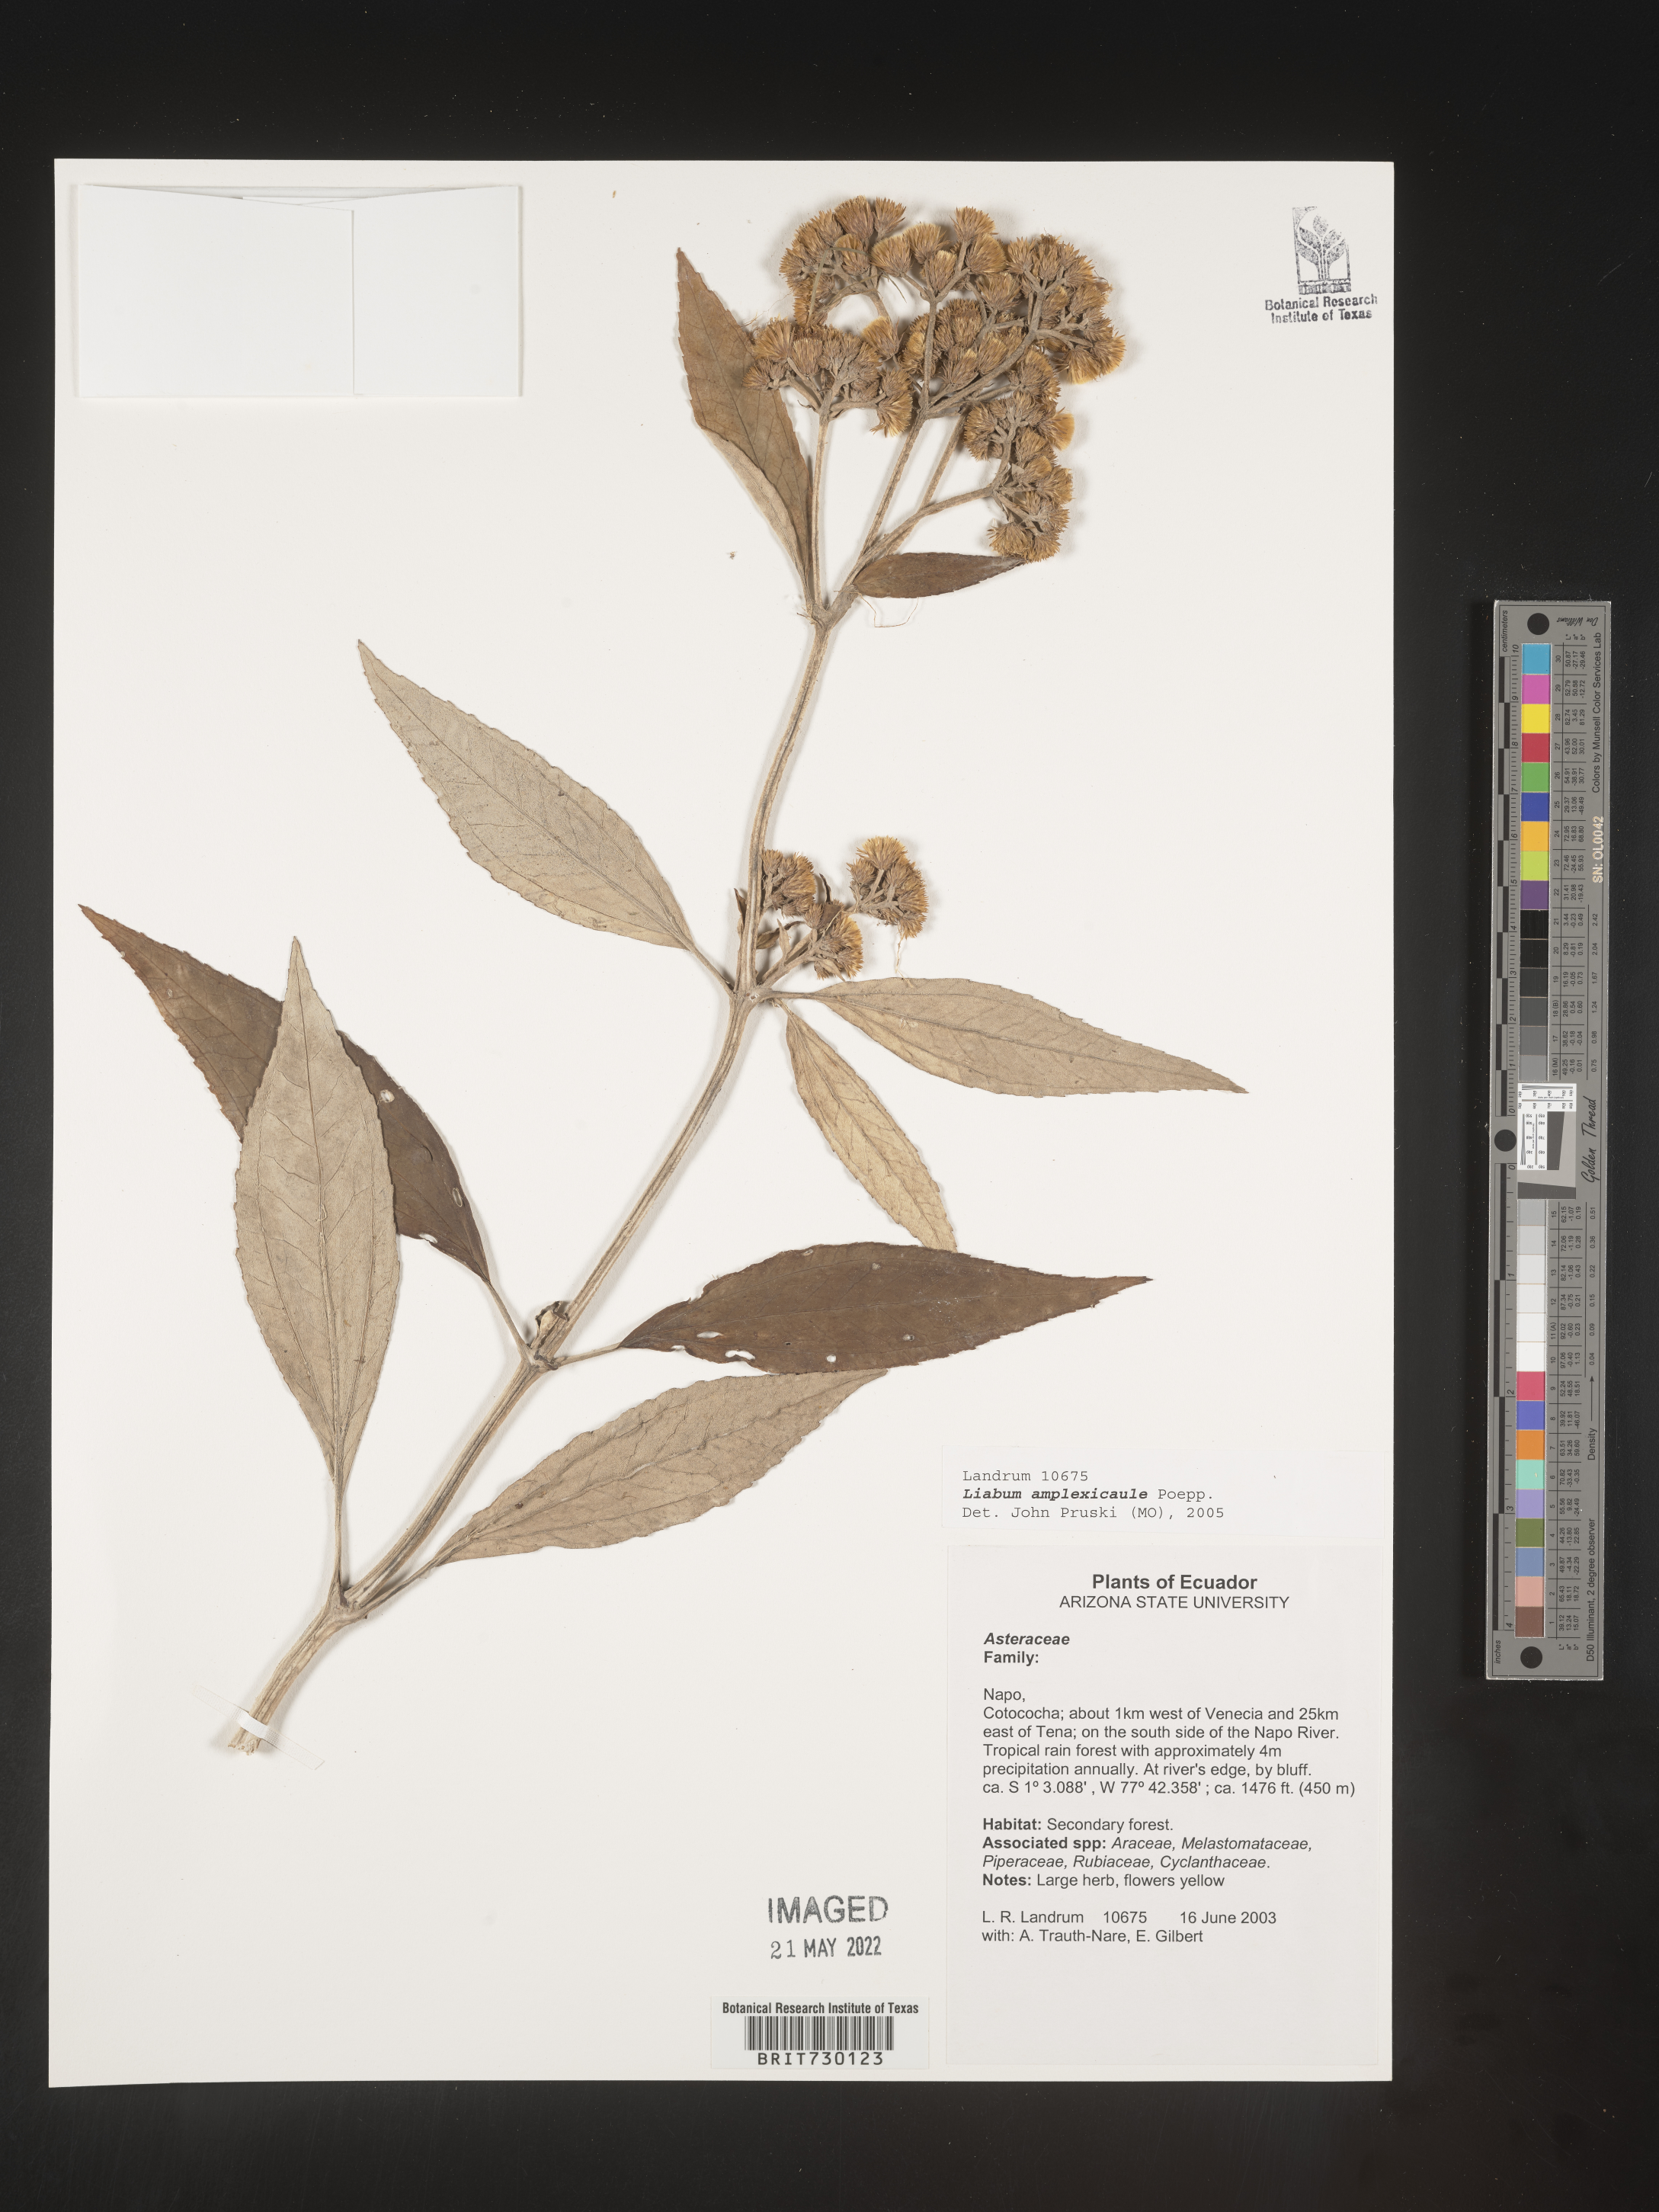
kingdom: Plantae
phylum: Tracheophyta
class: Magnoliopsida
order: Asterales
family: Asteraceae
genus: Liabum
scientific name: Liabum
